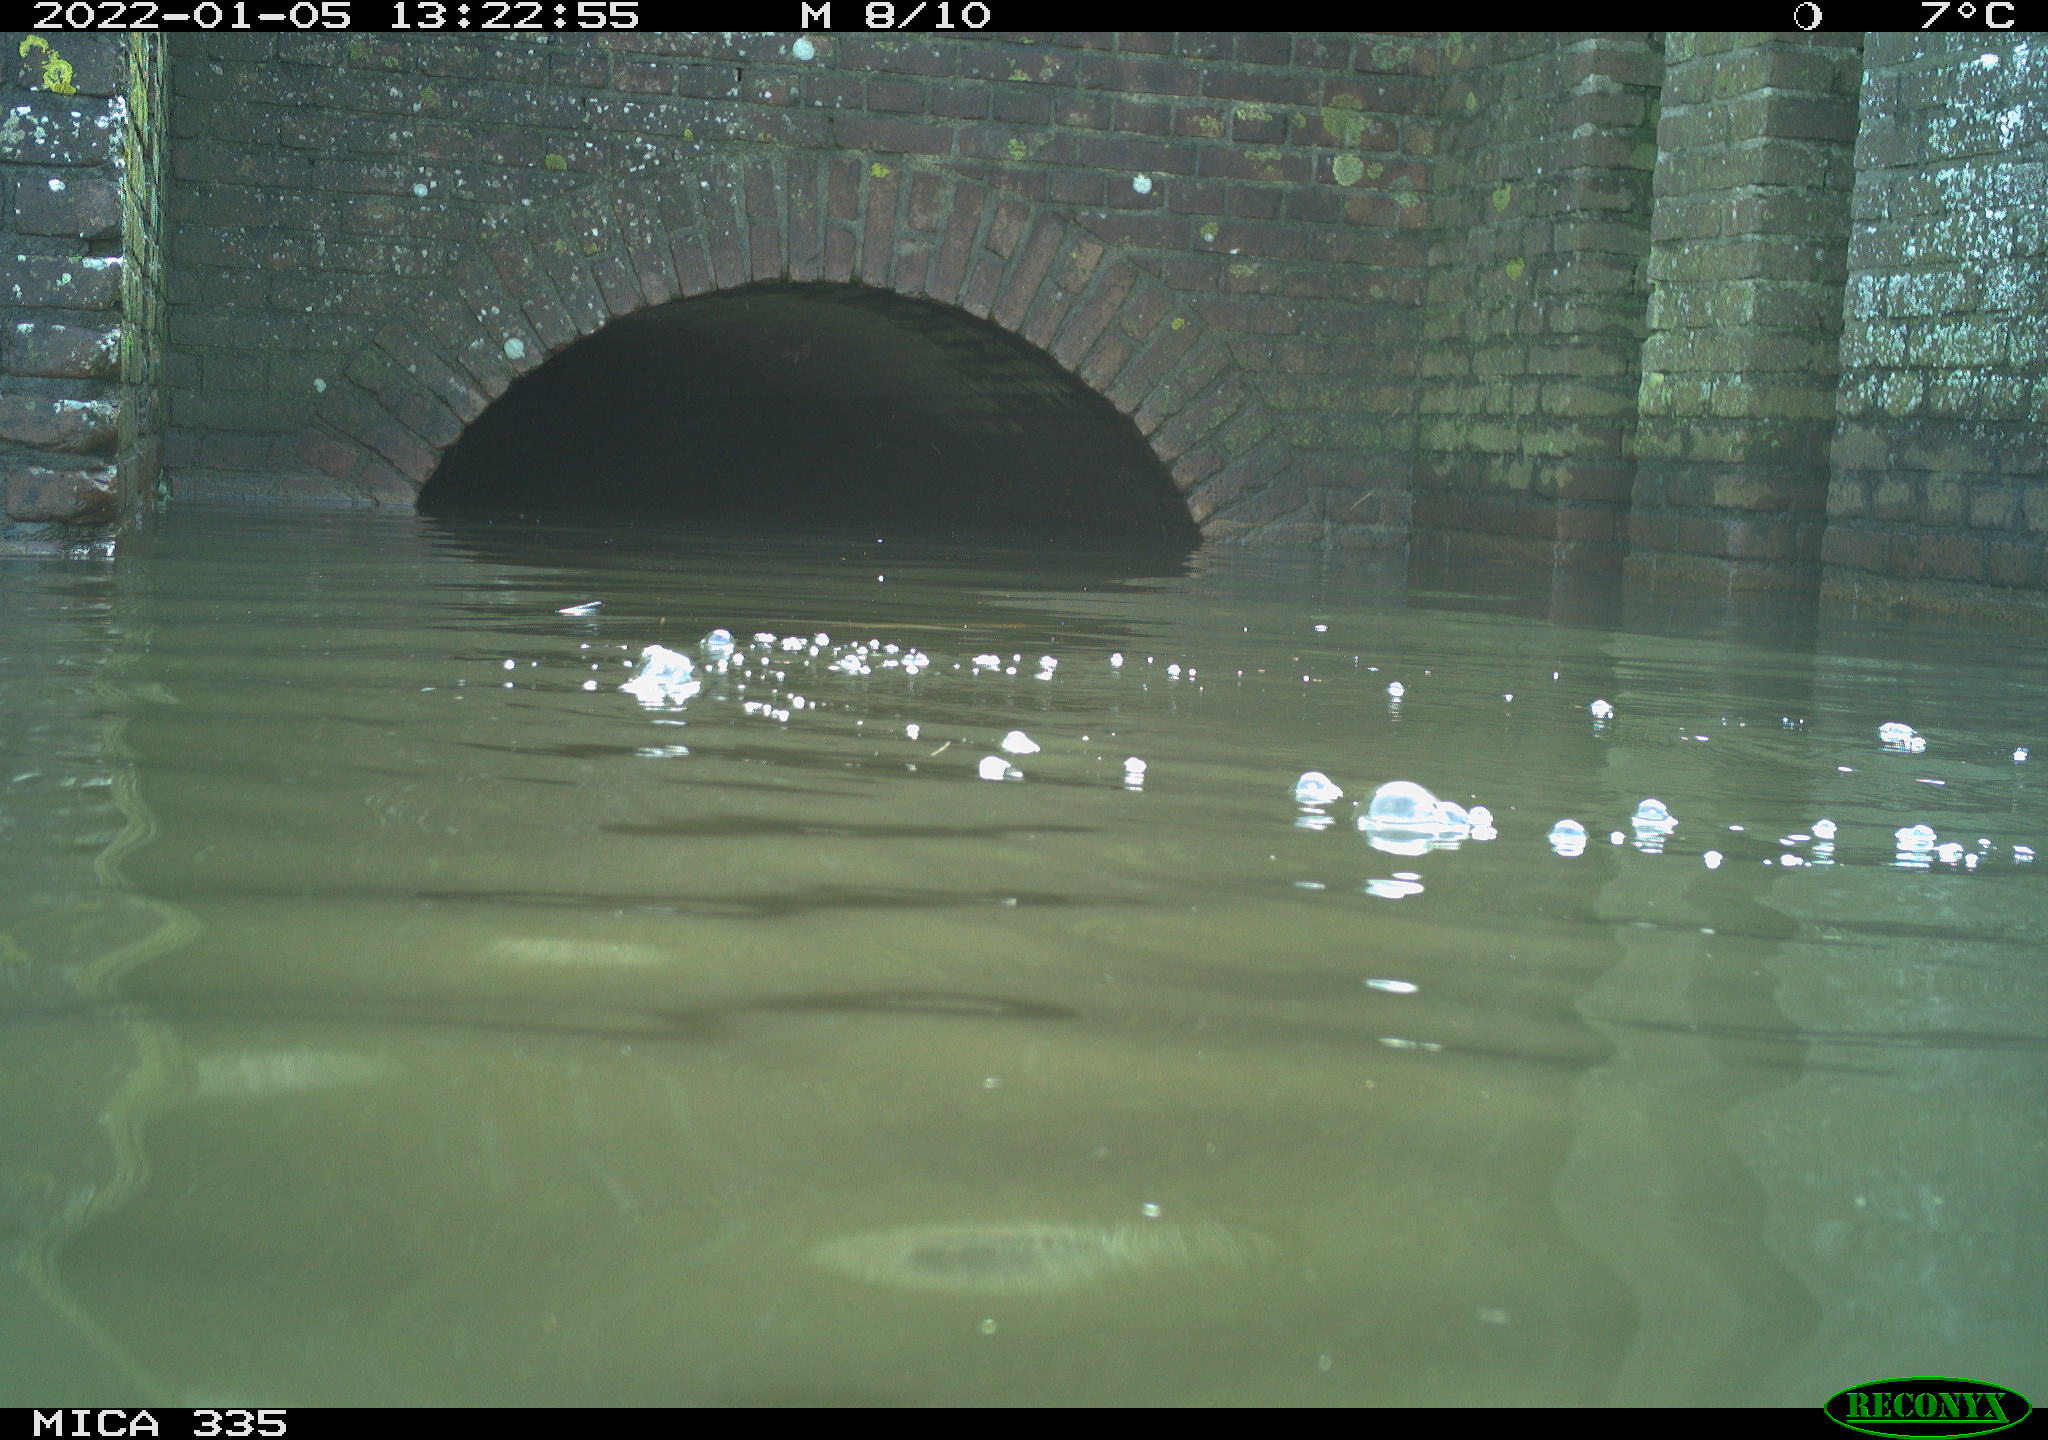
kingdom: Animalia
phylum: Chordata
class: Aves
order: Suliformes
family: Phalacrocoracidae
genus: Phalacrocorax
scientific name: Phalacrocorax carbo
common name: Great cormorant
